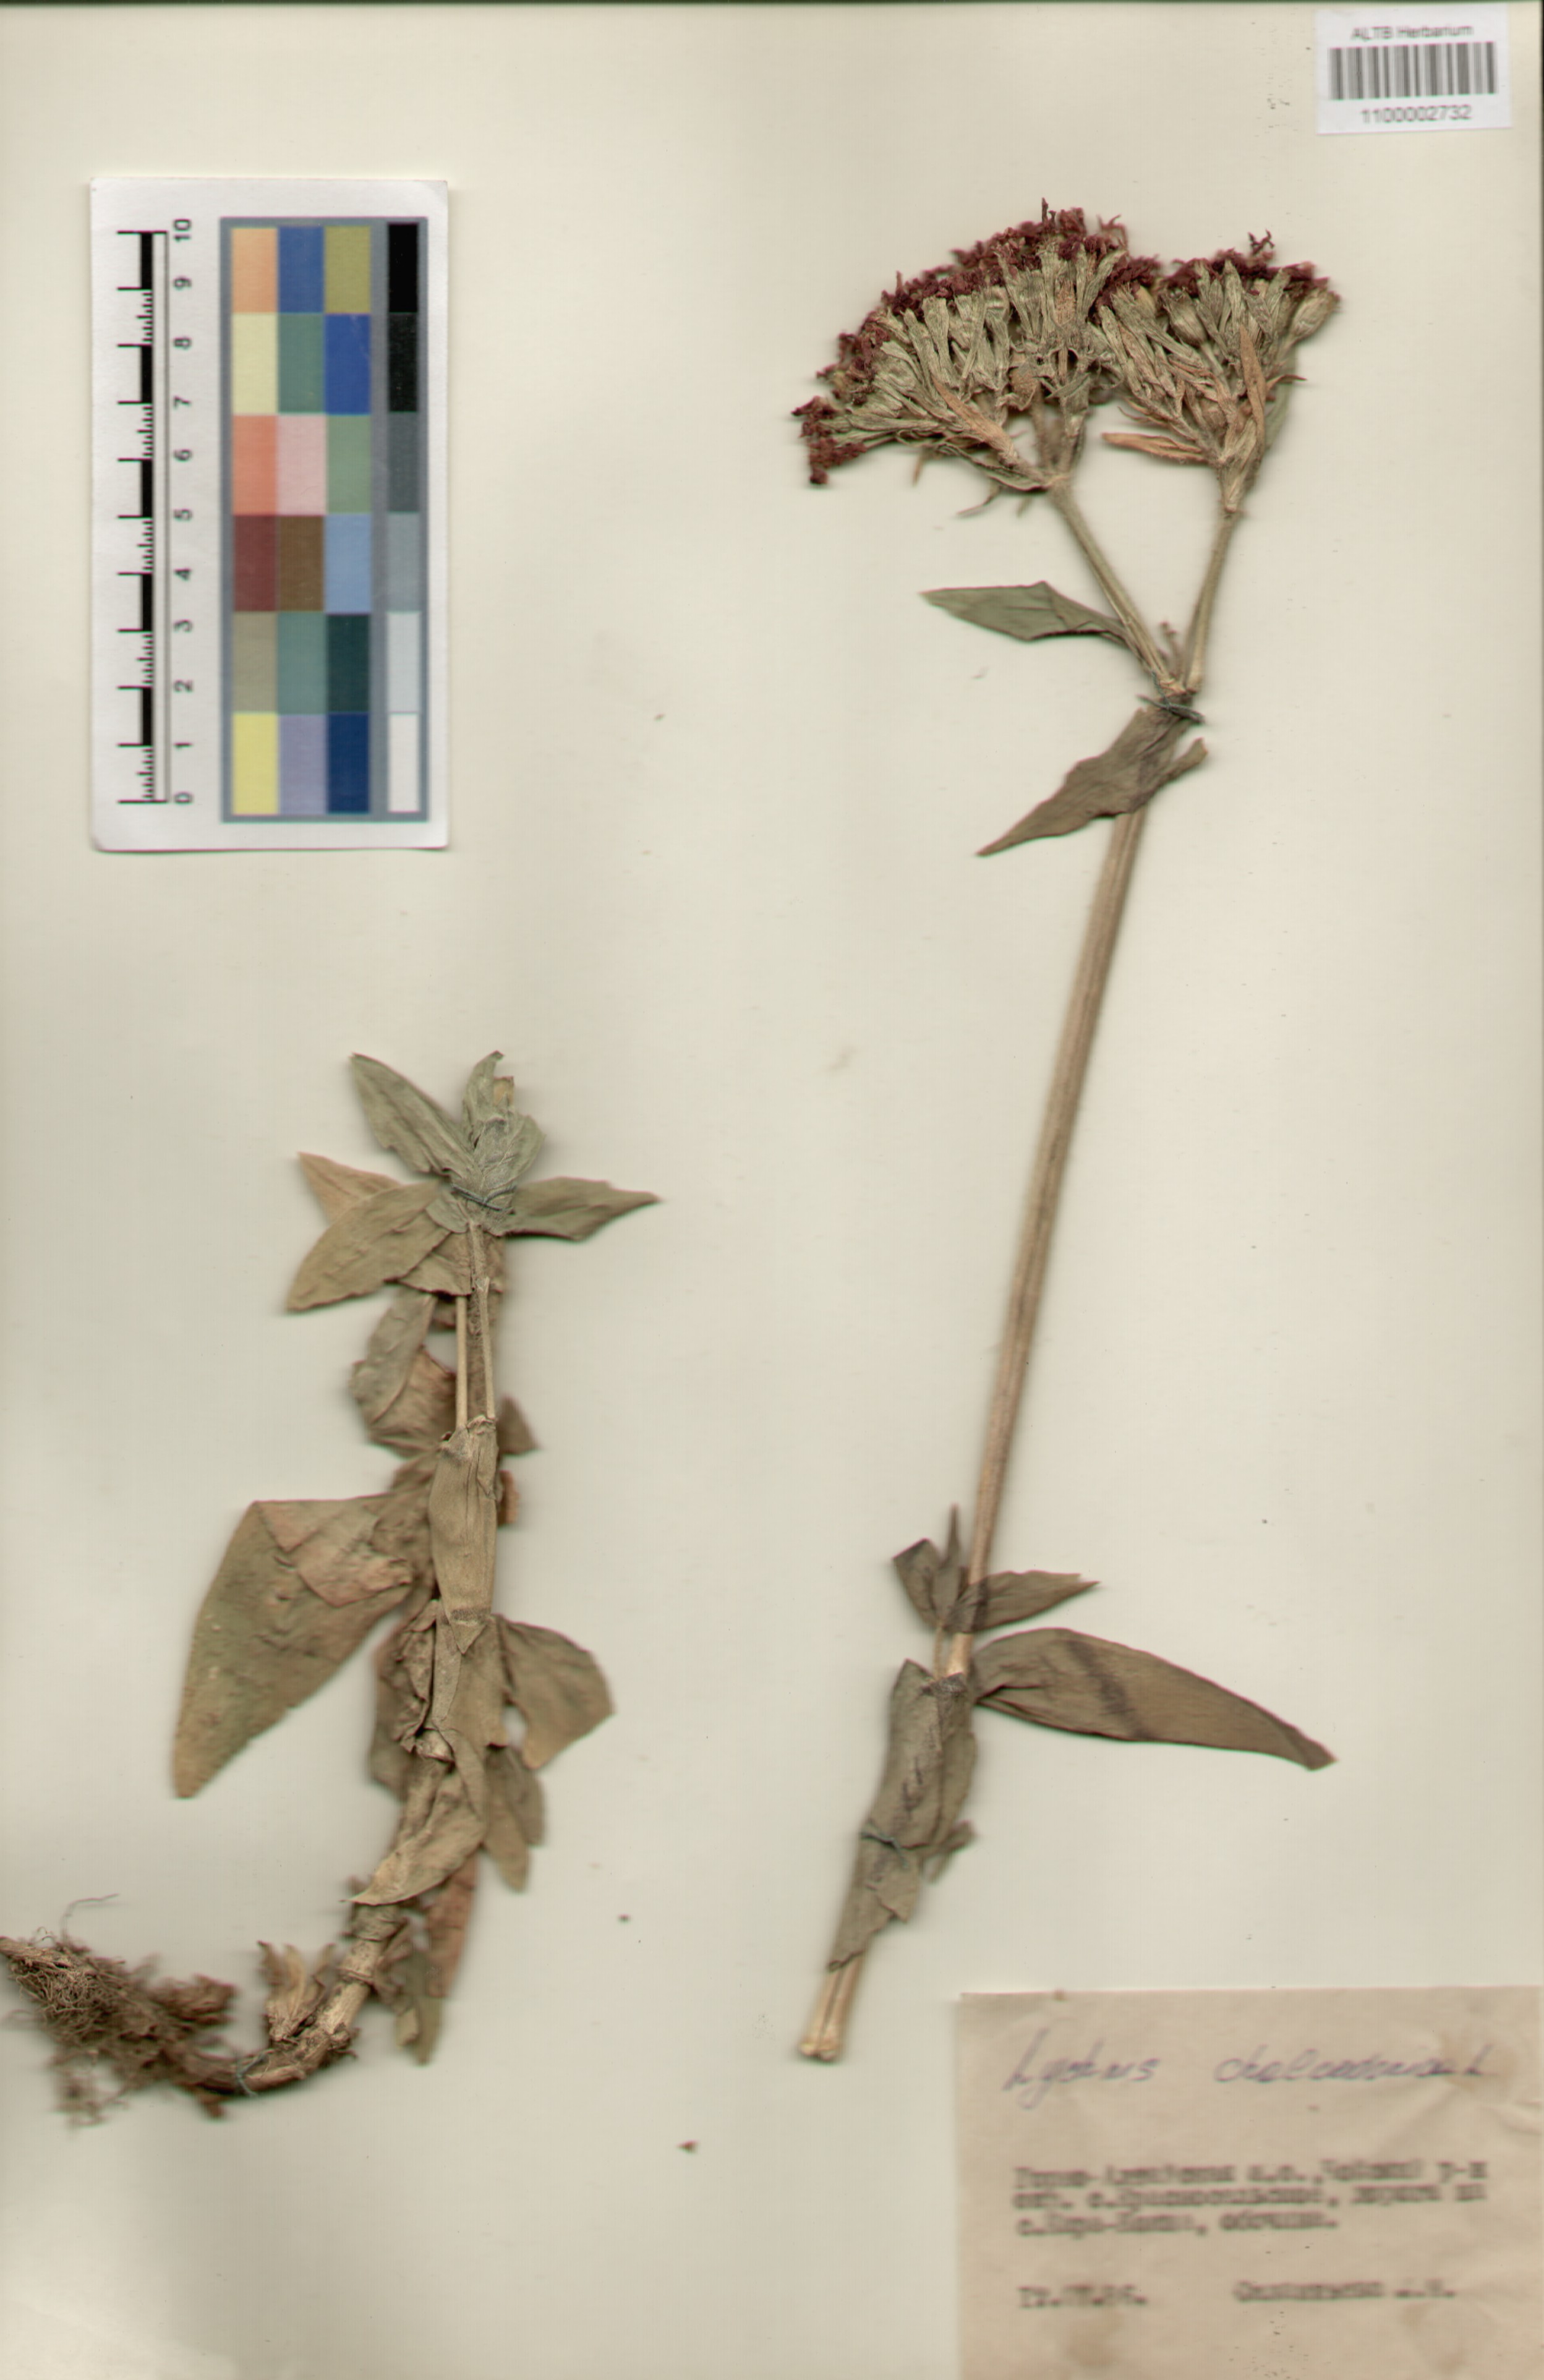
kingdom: Plantae
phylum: Tracheophyta
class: Magnoliopsida
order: Caryophyllales
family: Caryophyllaceae
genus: Silene
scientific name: Silene chalcedonica
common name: Maltese-cross
